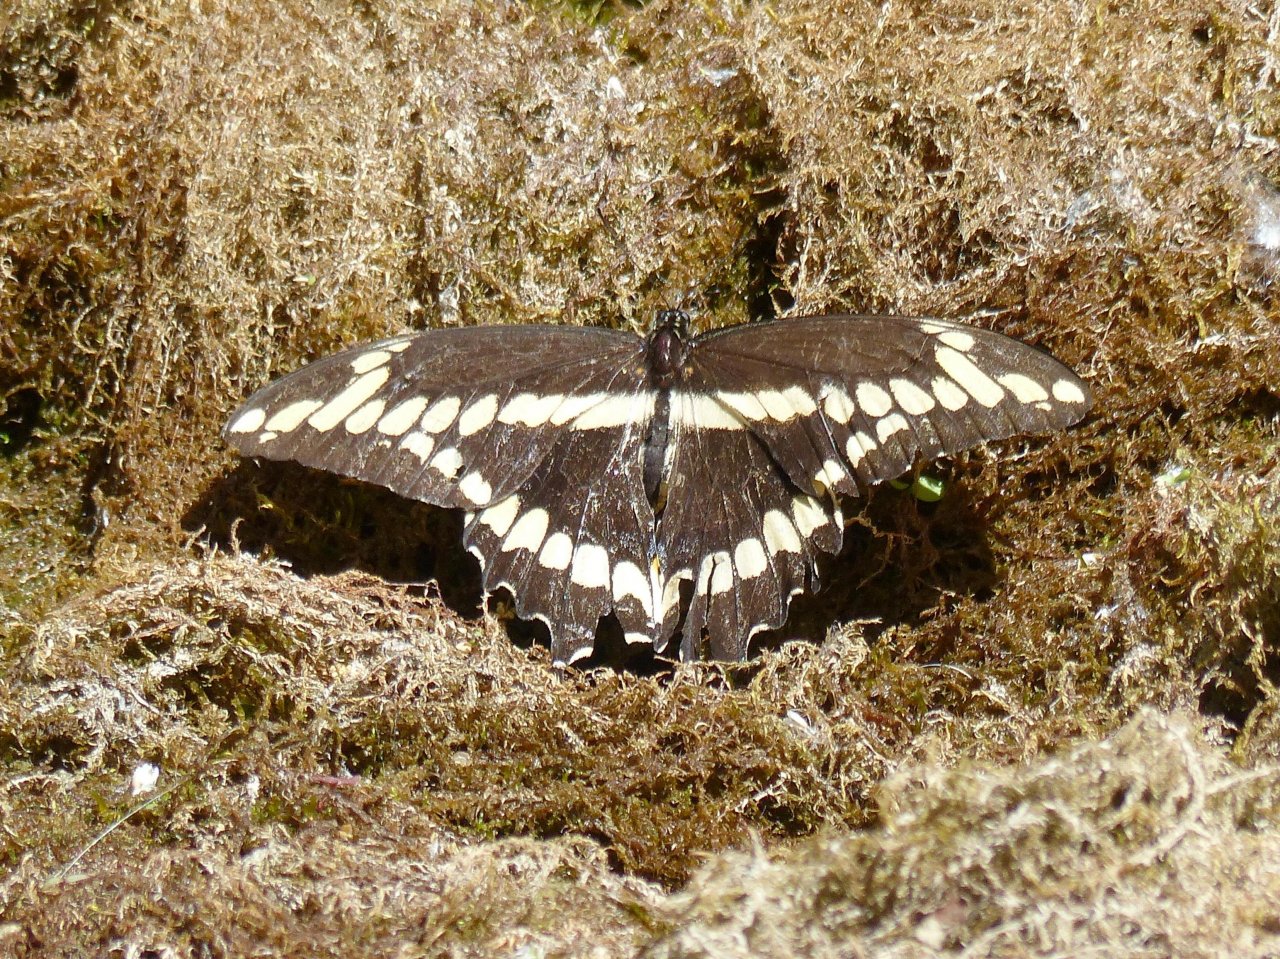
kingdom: Animalia
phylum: Arthropoda
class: Insecta
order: Lepidoptera
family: Papilionidae
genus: Papilio
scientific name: Papilio cresphontes
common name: Eastern Giant Swallowtail
